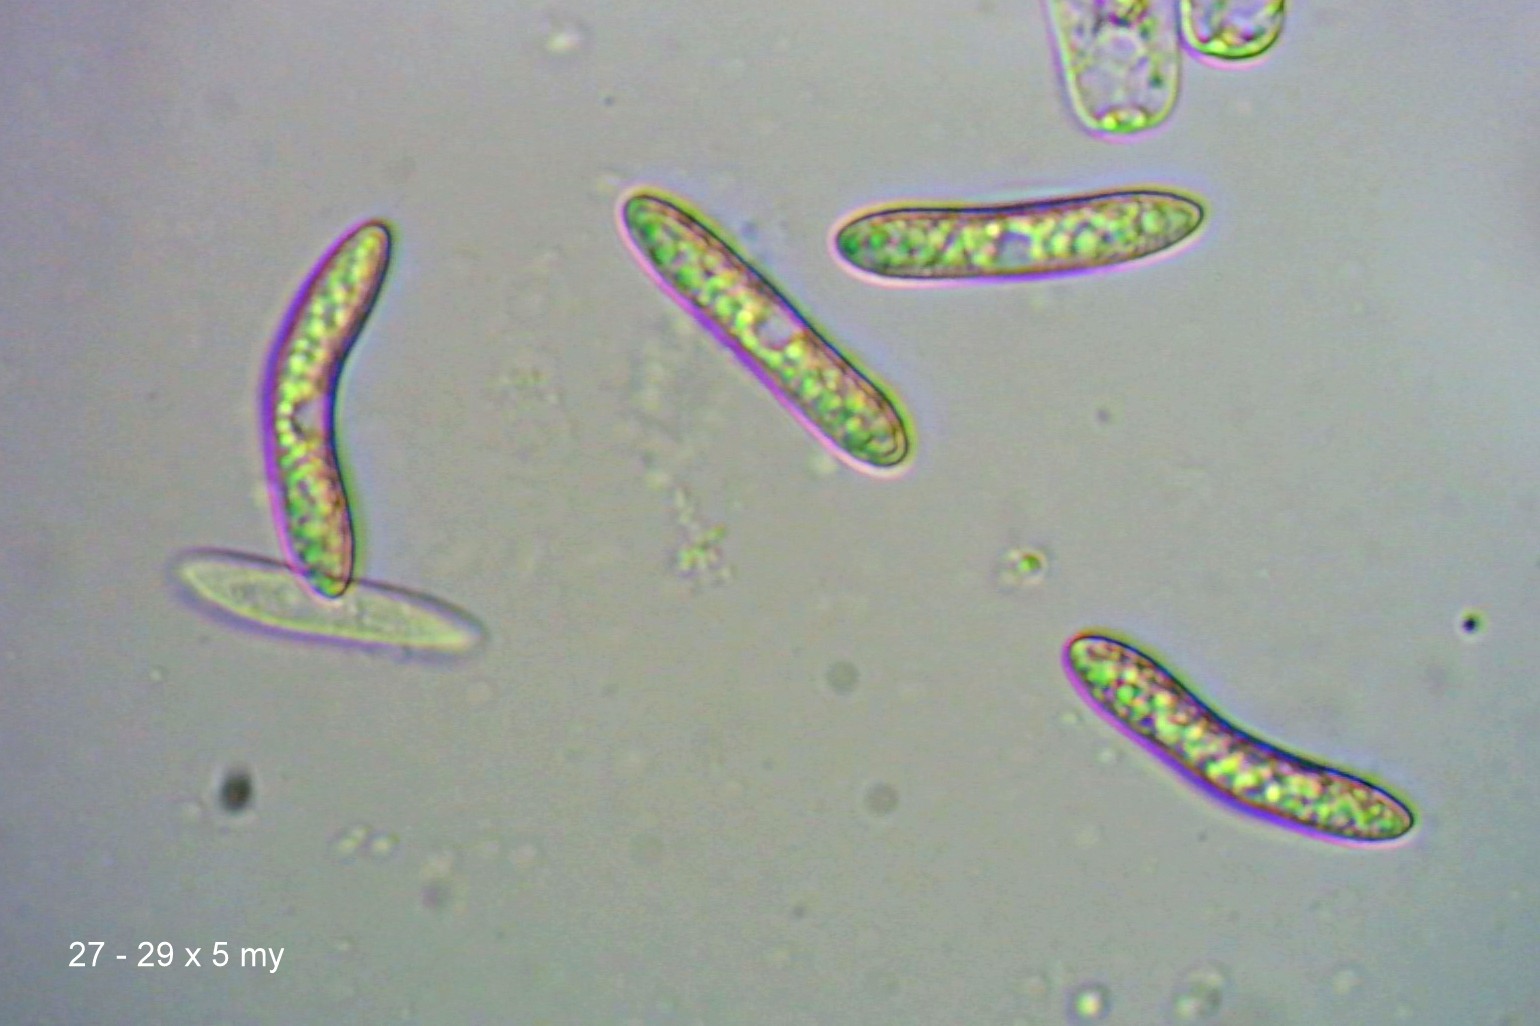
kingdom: Fungi
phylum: Ascomycota
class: Sordariomycetes
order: Sordariales
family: Helminthosphaeriaceae
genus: Echinosphaeria
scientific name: Echinosphaeria canescens
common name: brun børstekerne
